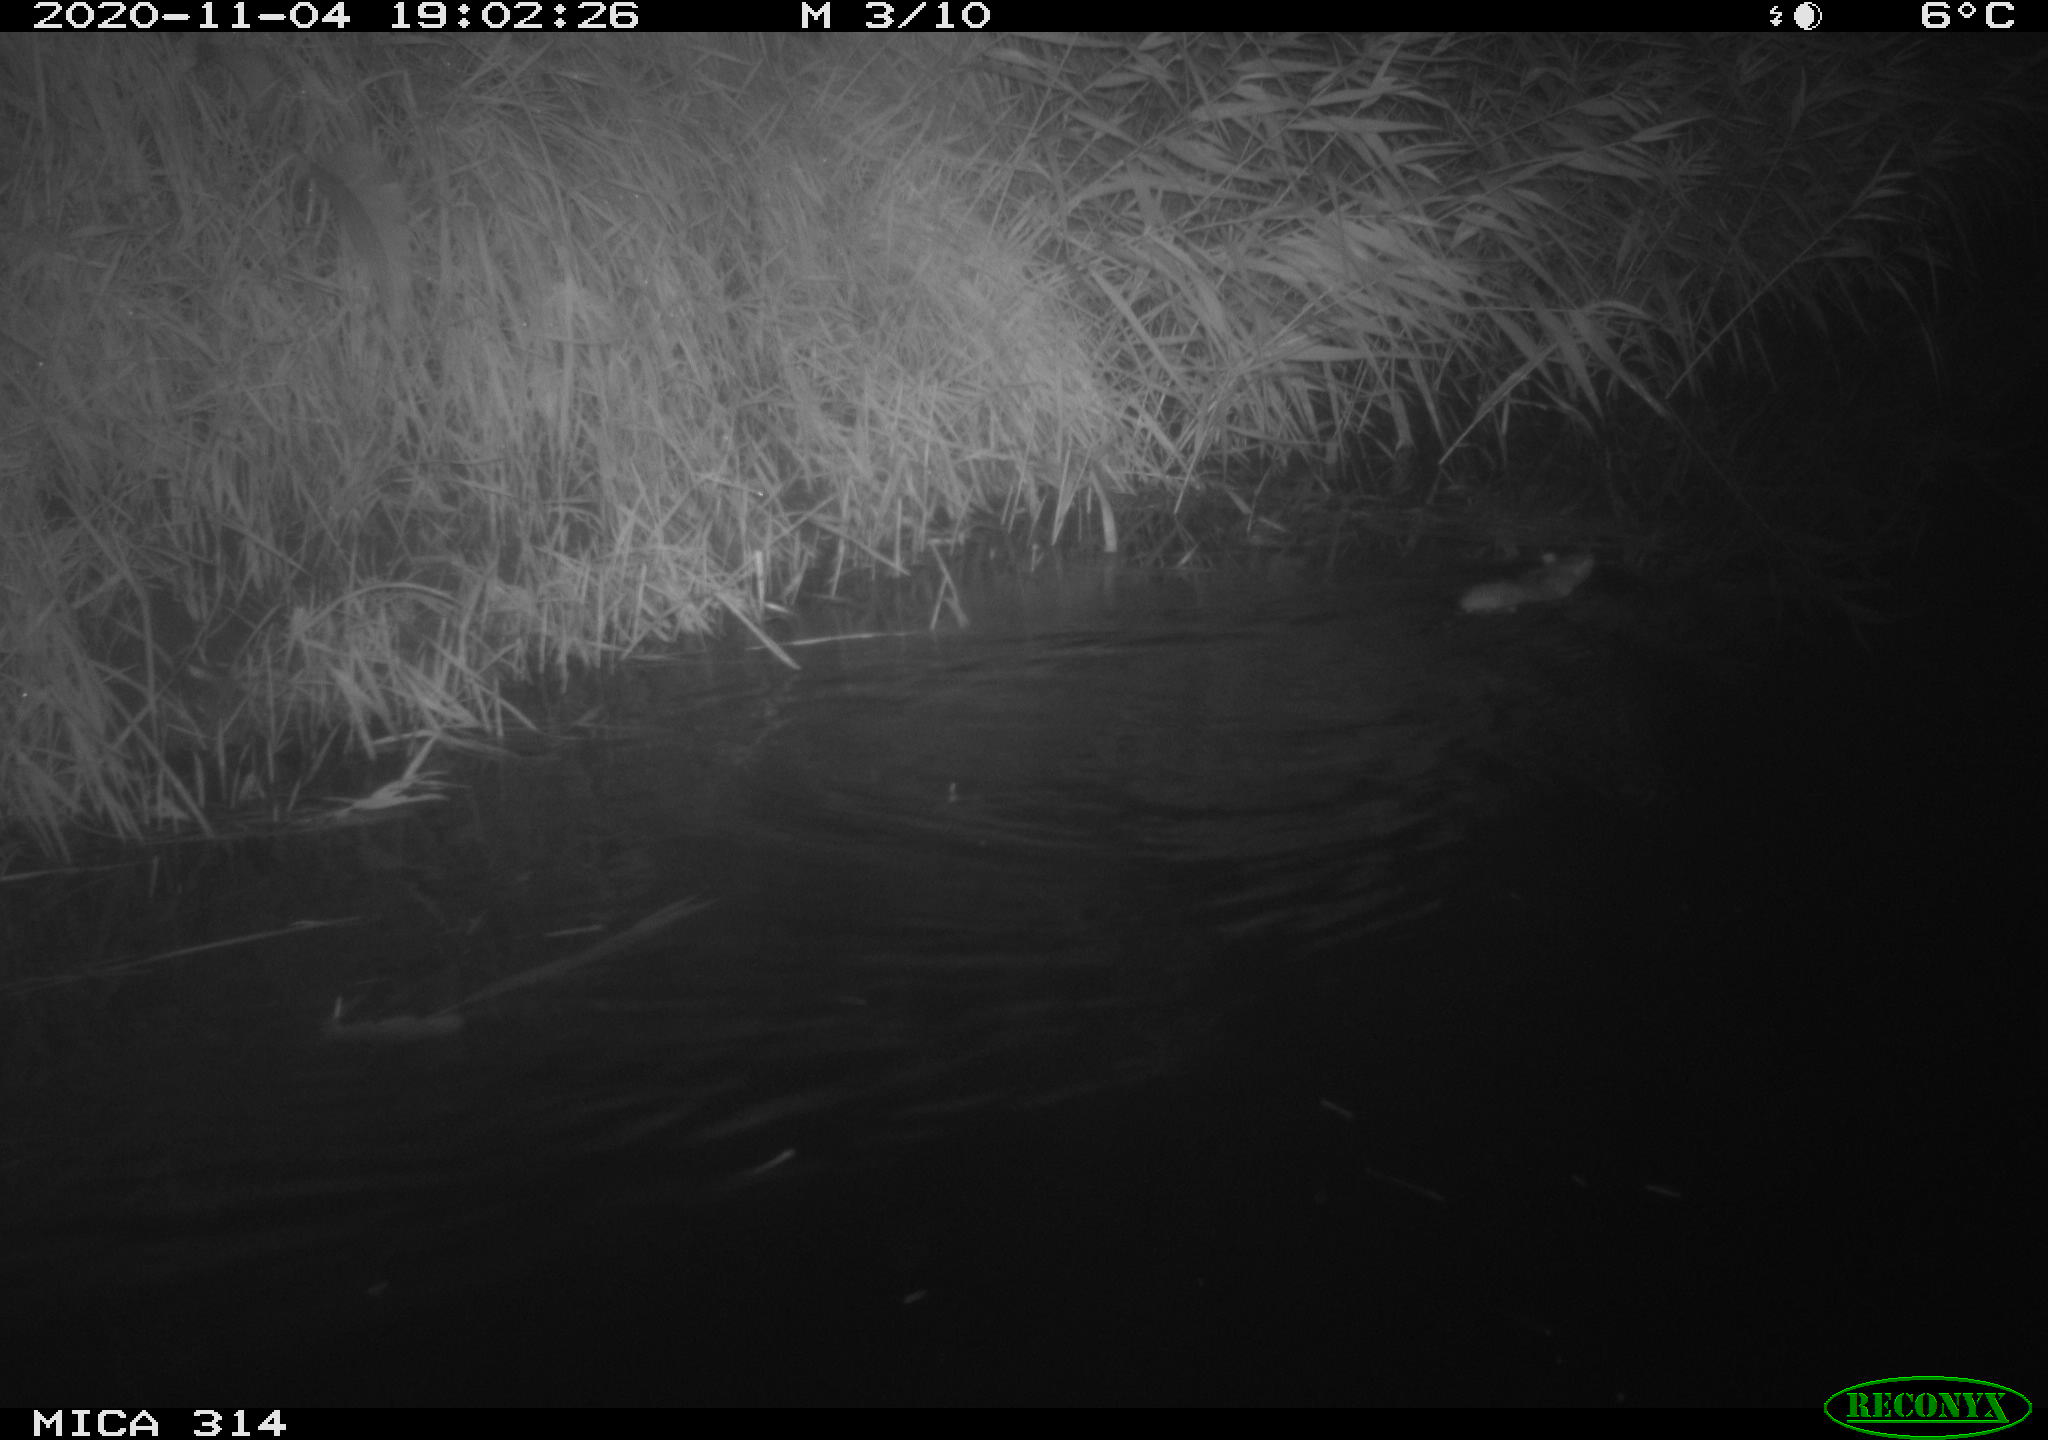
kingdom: Animalia
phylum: Chordata
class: Mammalia
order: Rodentia
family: Muridae
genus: Rattus
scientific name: Rattus norvegicus
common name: Brown rat
